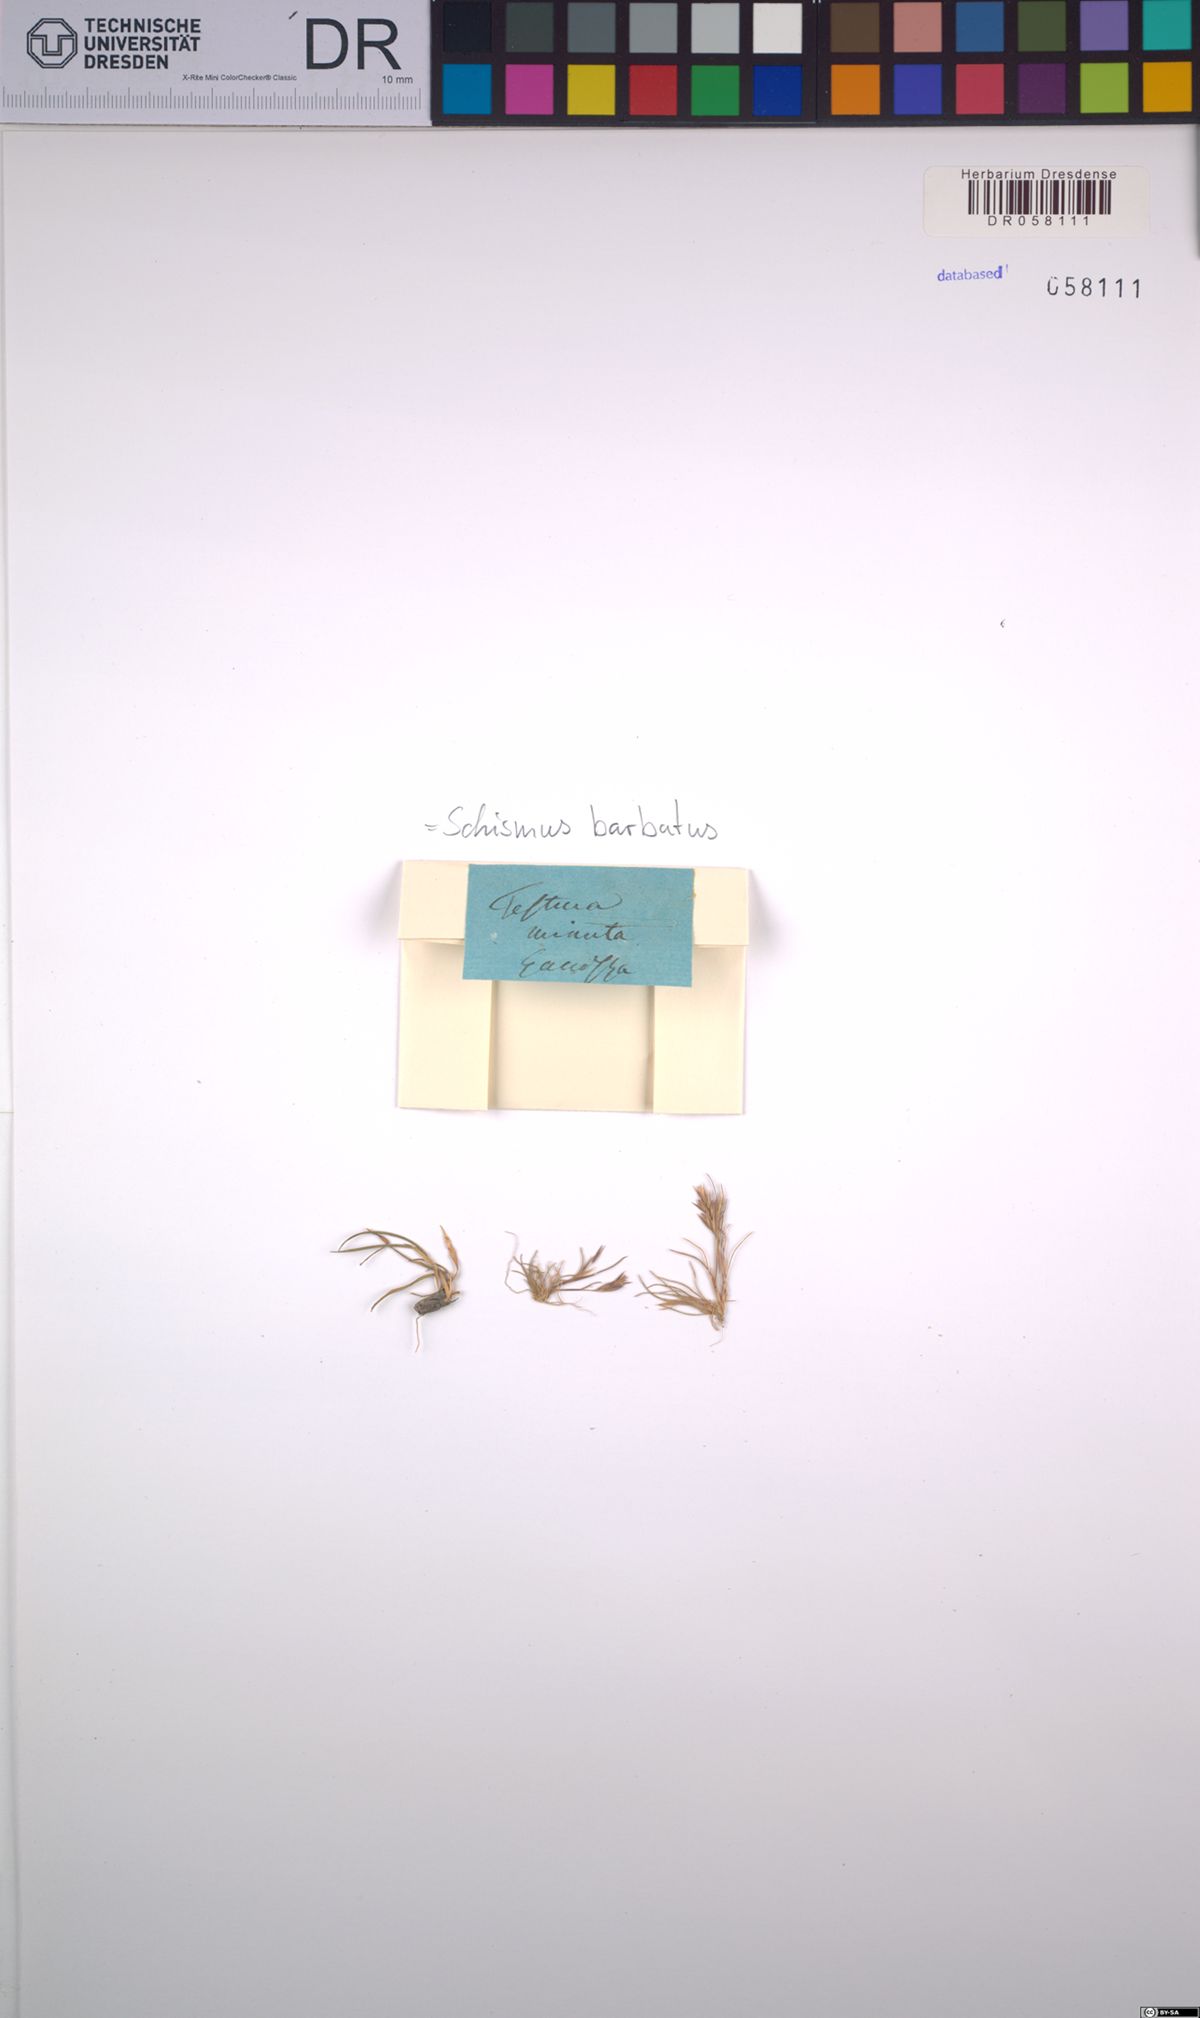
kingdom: Plantae
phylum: Tracheophyta
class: Liliopsida
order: Poales
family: Poaceae
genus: Schismus
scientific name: Schismus barbatus
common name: Kelch-grass
